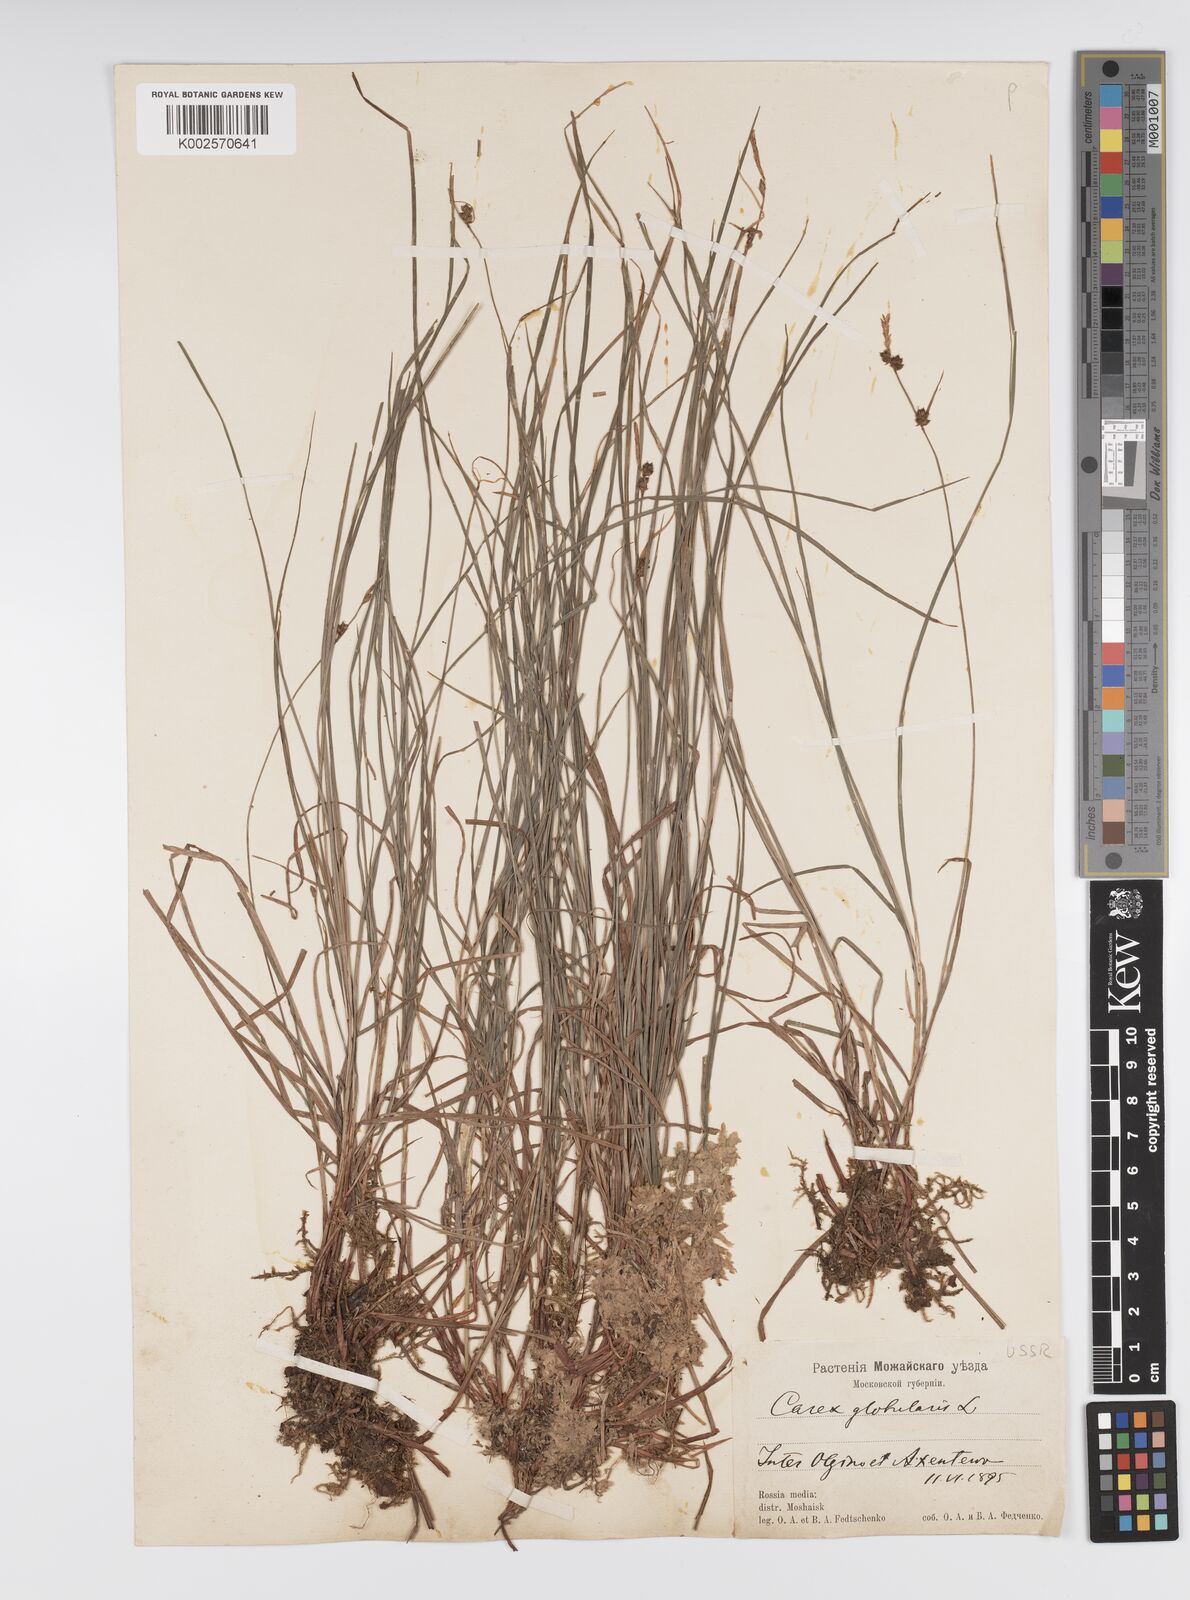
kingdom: Plantae
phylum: Tracheophyta
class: Liliopsida
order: Poales
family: Cyperaceae
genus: Carex
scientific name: Carex globularis
